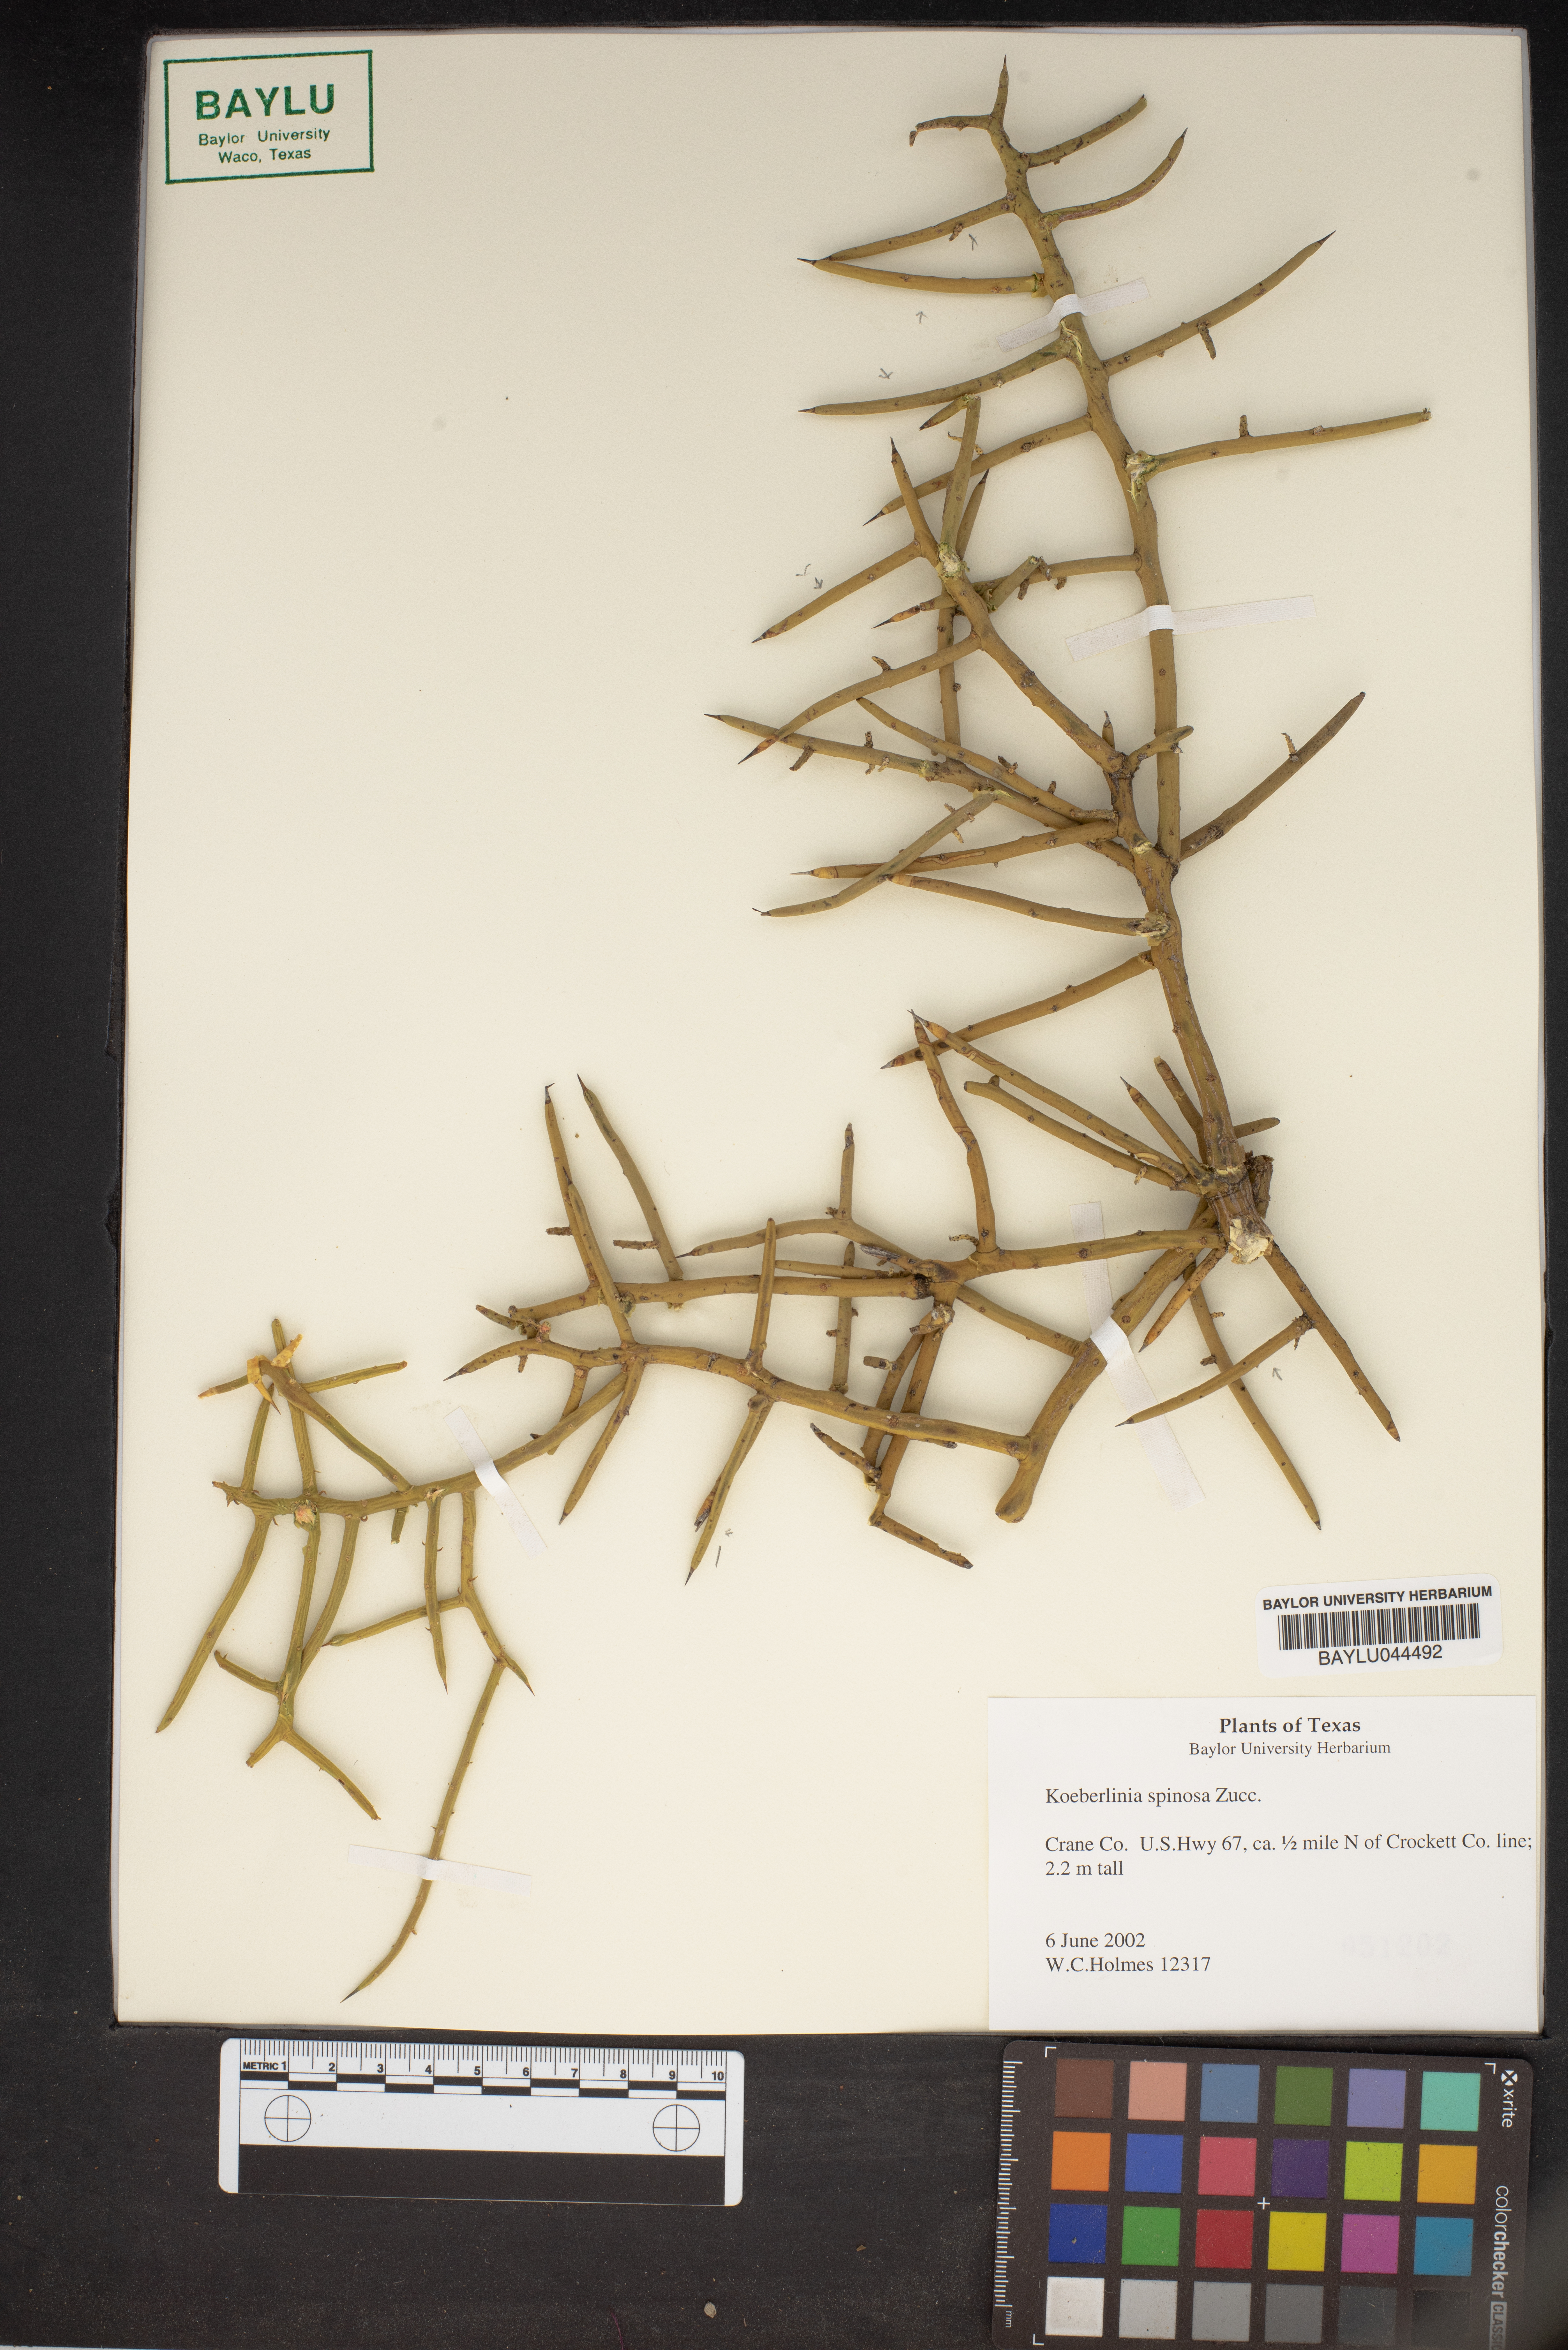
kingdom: Plantae
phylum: Tracheophyta
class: Magnoliopsida
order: Brassicales
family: Koeberliniaceae
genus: Koeberlinia
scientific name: Koeberlinia spinosa
